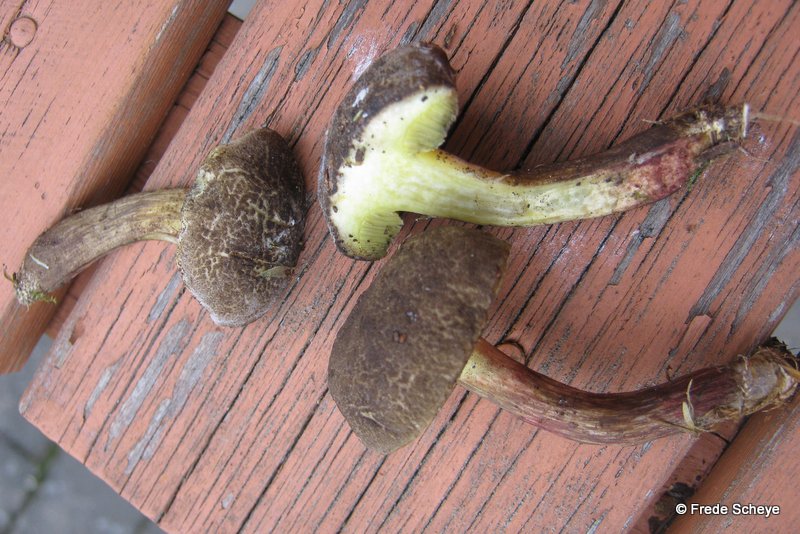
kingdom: Fungi
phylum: Basidiomycota
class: Agaricomycetes
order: Boletales
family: Boletaceae
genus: Xerocomellus
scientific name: Xerocomellus porosporus
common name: hvidsprukken rørhat
